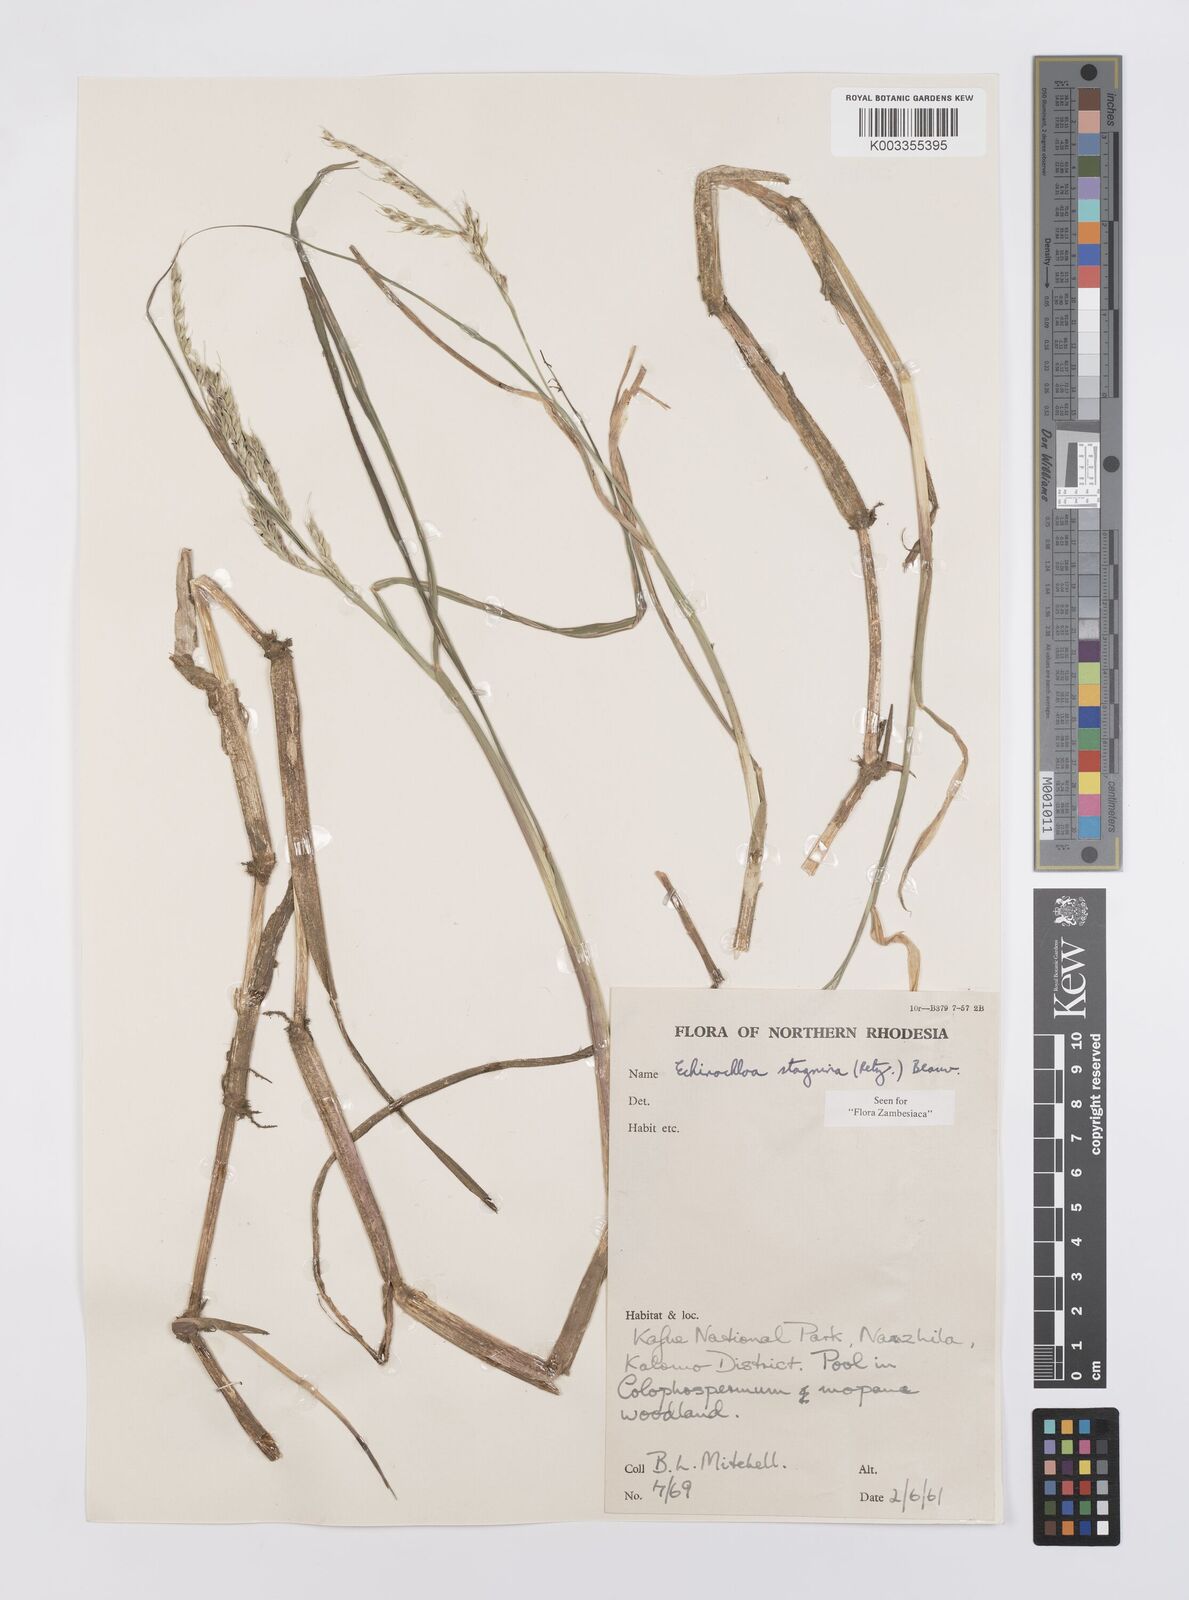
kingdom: Plantae
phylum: Tracheophyta
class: Liliopsida
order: Poales
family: Poaceae
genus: Echinochloa
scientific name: Echinochloa stagnina
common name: Burgu grass
